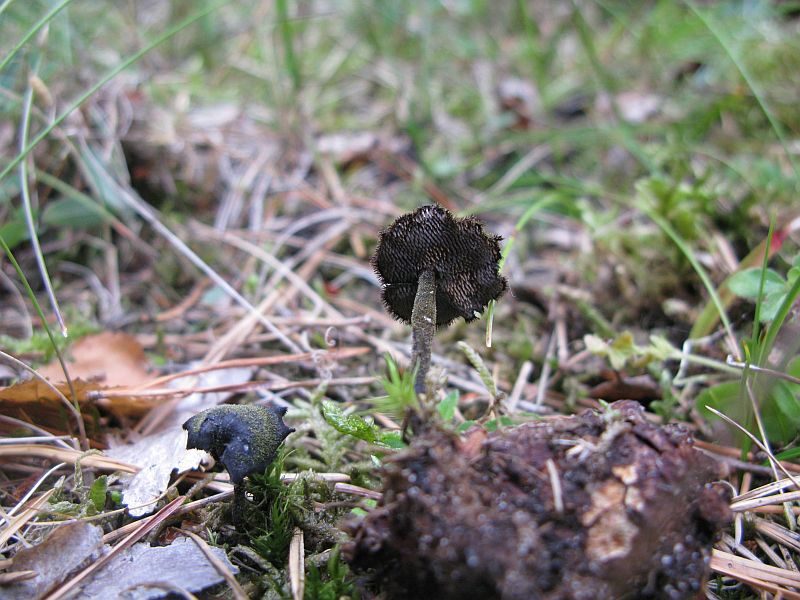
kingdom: Fungi
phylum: Basidiomycota
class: Agaricomycetes
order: Russulales
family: Auriscalpiaceae
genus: Auriscalpium
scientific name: Auriscalpium vulgare
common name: koglepigsvamp
